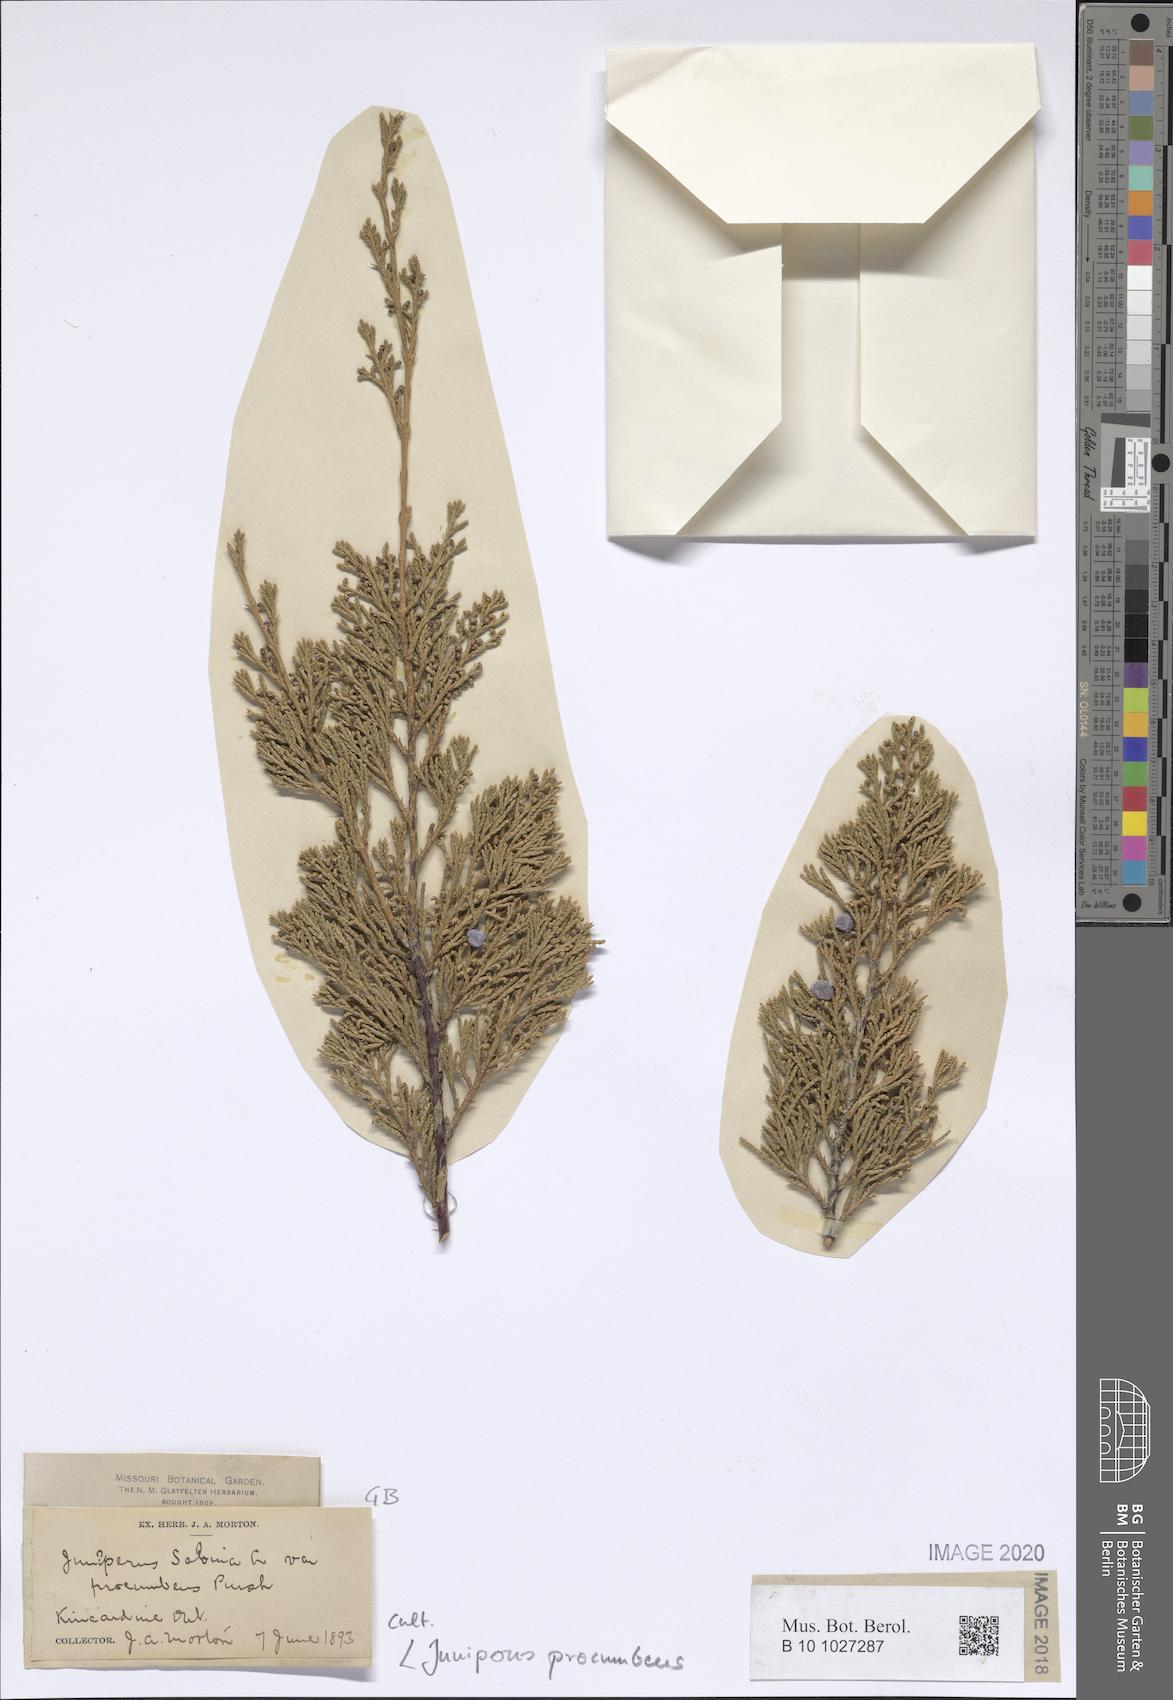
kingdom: Plantae
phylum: Tracheophyta
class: Pinopsida
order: Pinales
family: Cupressaceae
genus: Juniperus
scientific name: Juniperus procumbens
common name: Creeping juniper
